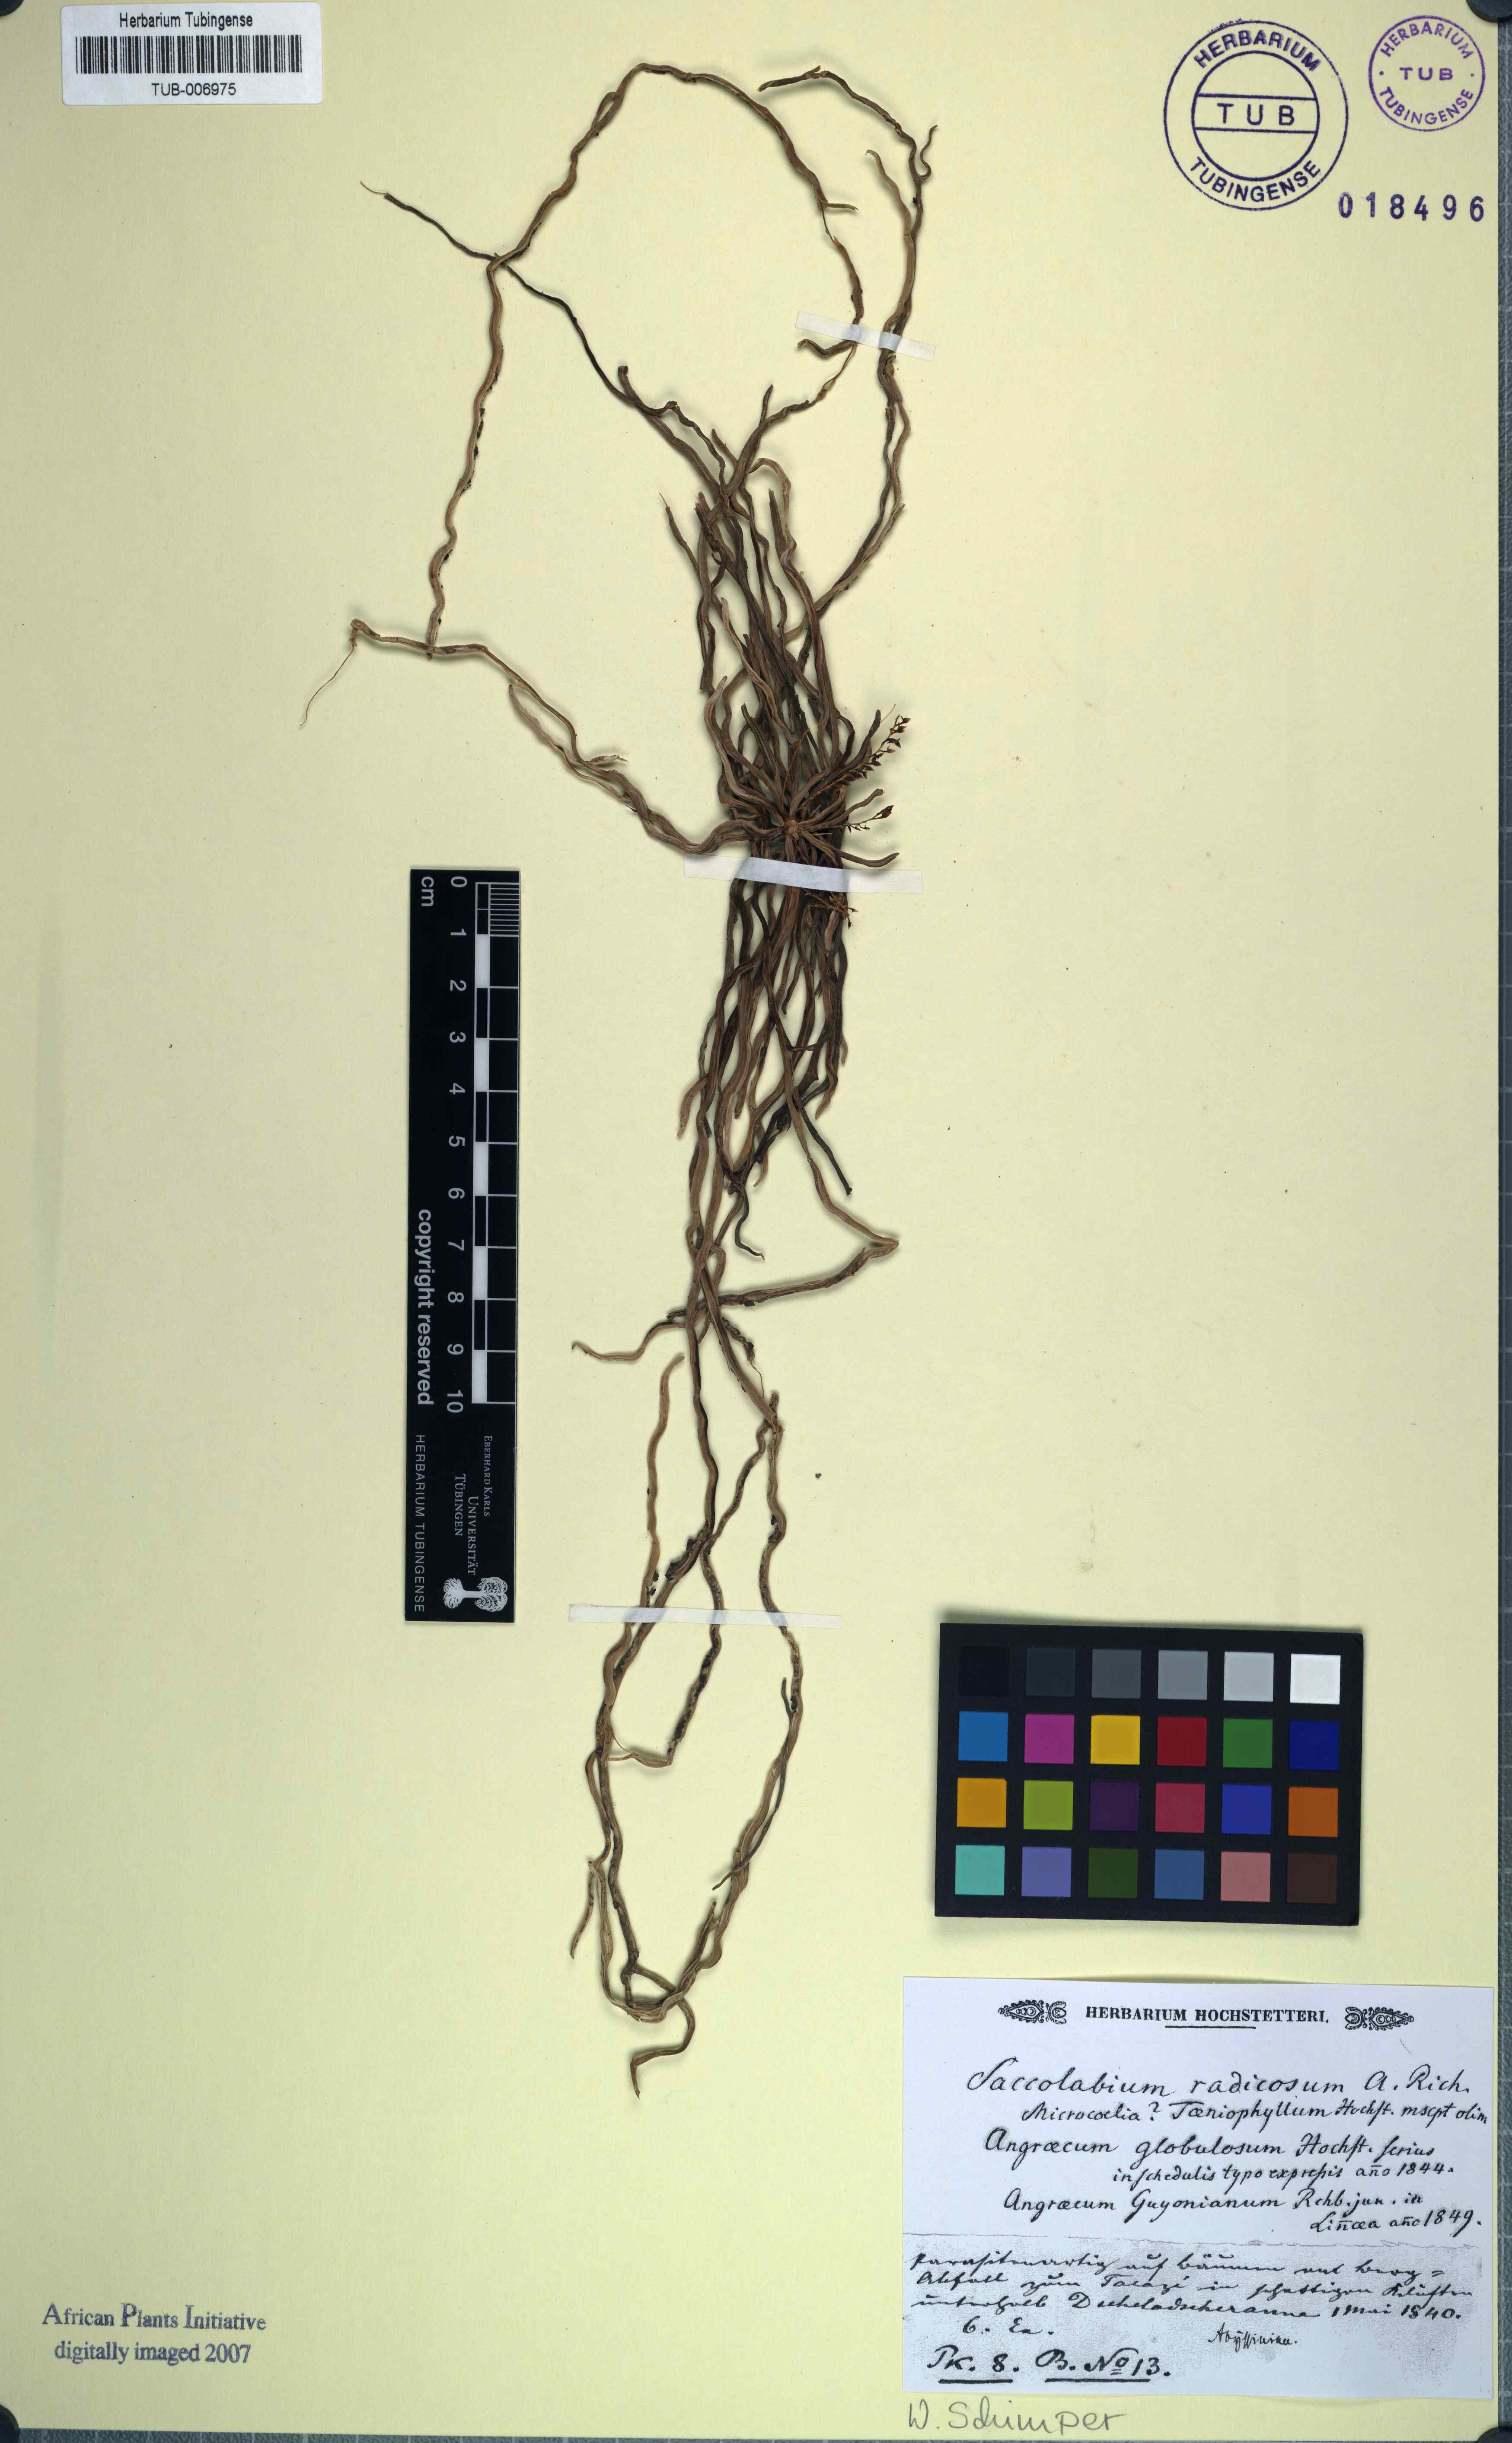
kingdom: Plantae
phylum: Tracheophyta
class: Liliopsida
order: Asparagales
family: Orchidaceae
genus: Microcoelia
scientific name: Microcoelia globulosa
